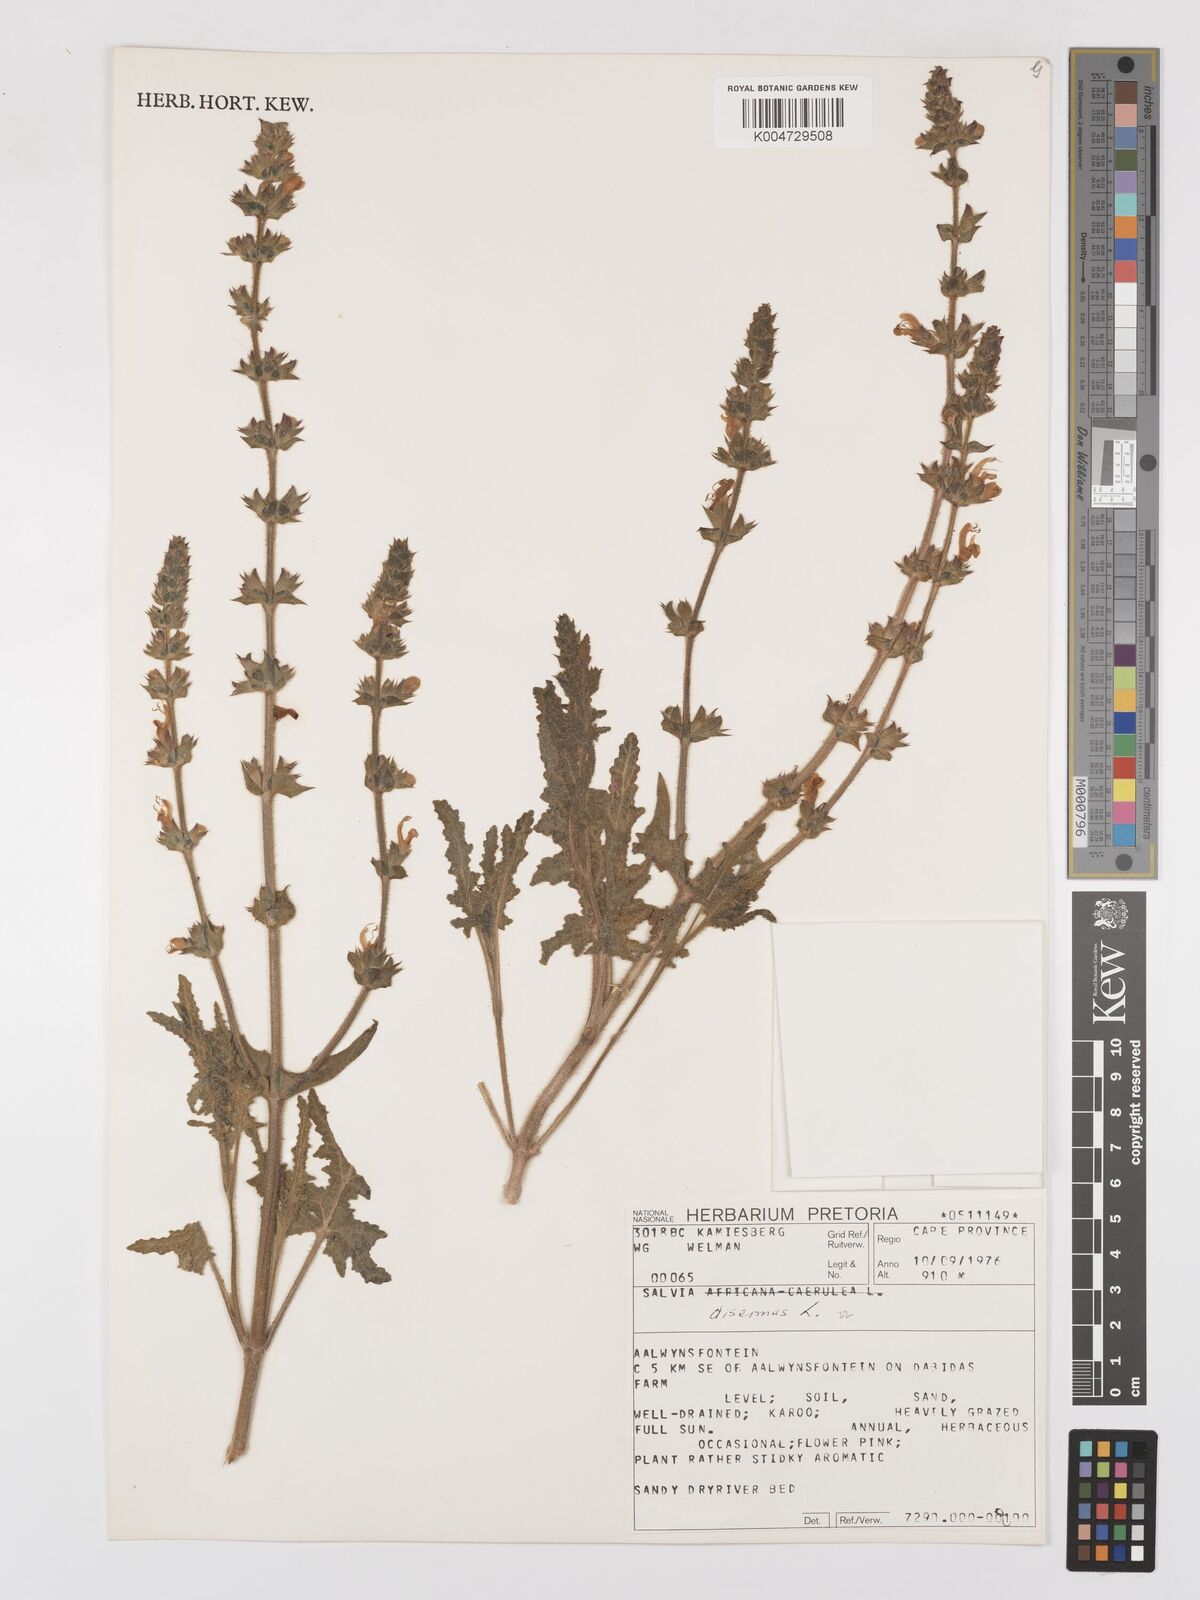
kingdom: Plantae
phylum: Tracheophyta
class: Magnoliopsida
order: Lamiales
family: Lamiaceae
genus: Salvia
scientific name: Salvia
